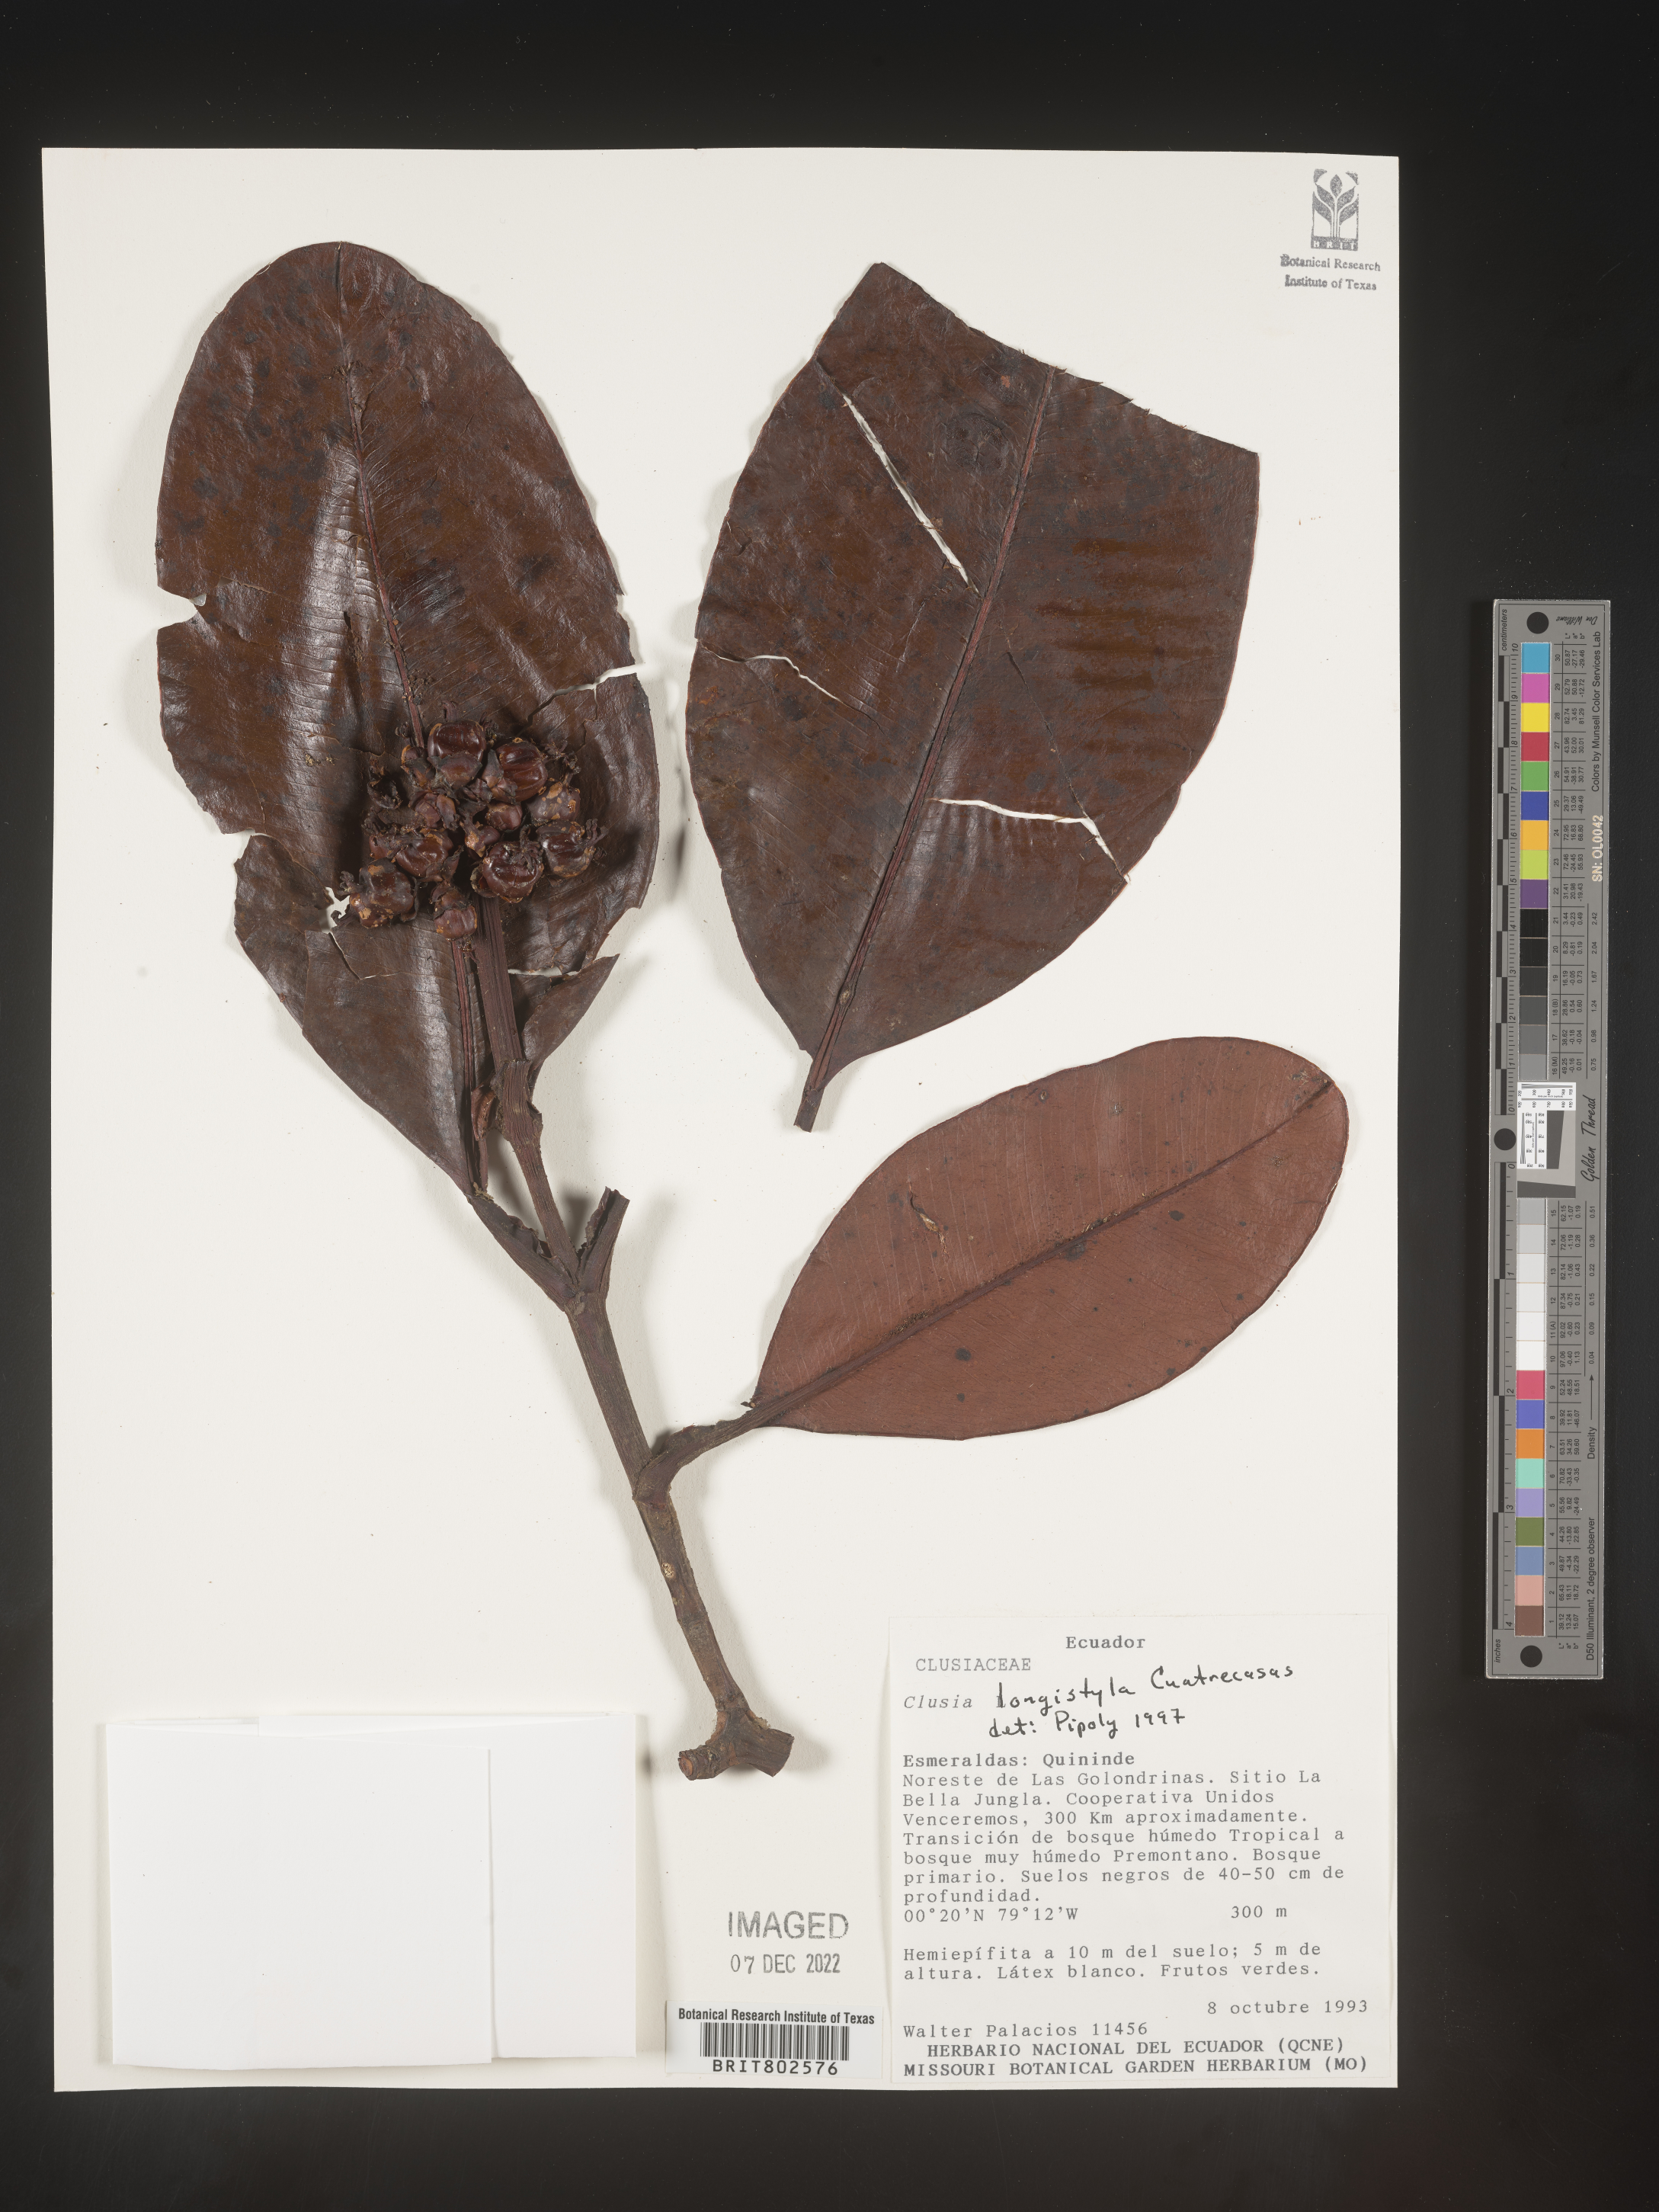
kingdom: Plantae
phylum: Tracheophyta
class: Magnoliopsida
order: Malpighiales
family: Clusiaceae
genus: Clusia
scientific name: Clusia rotundata
